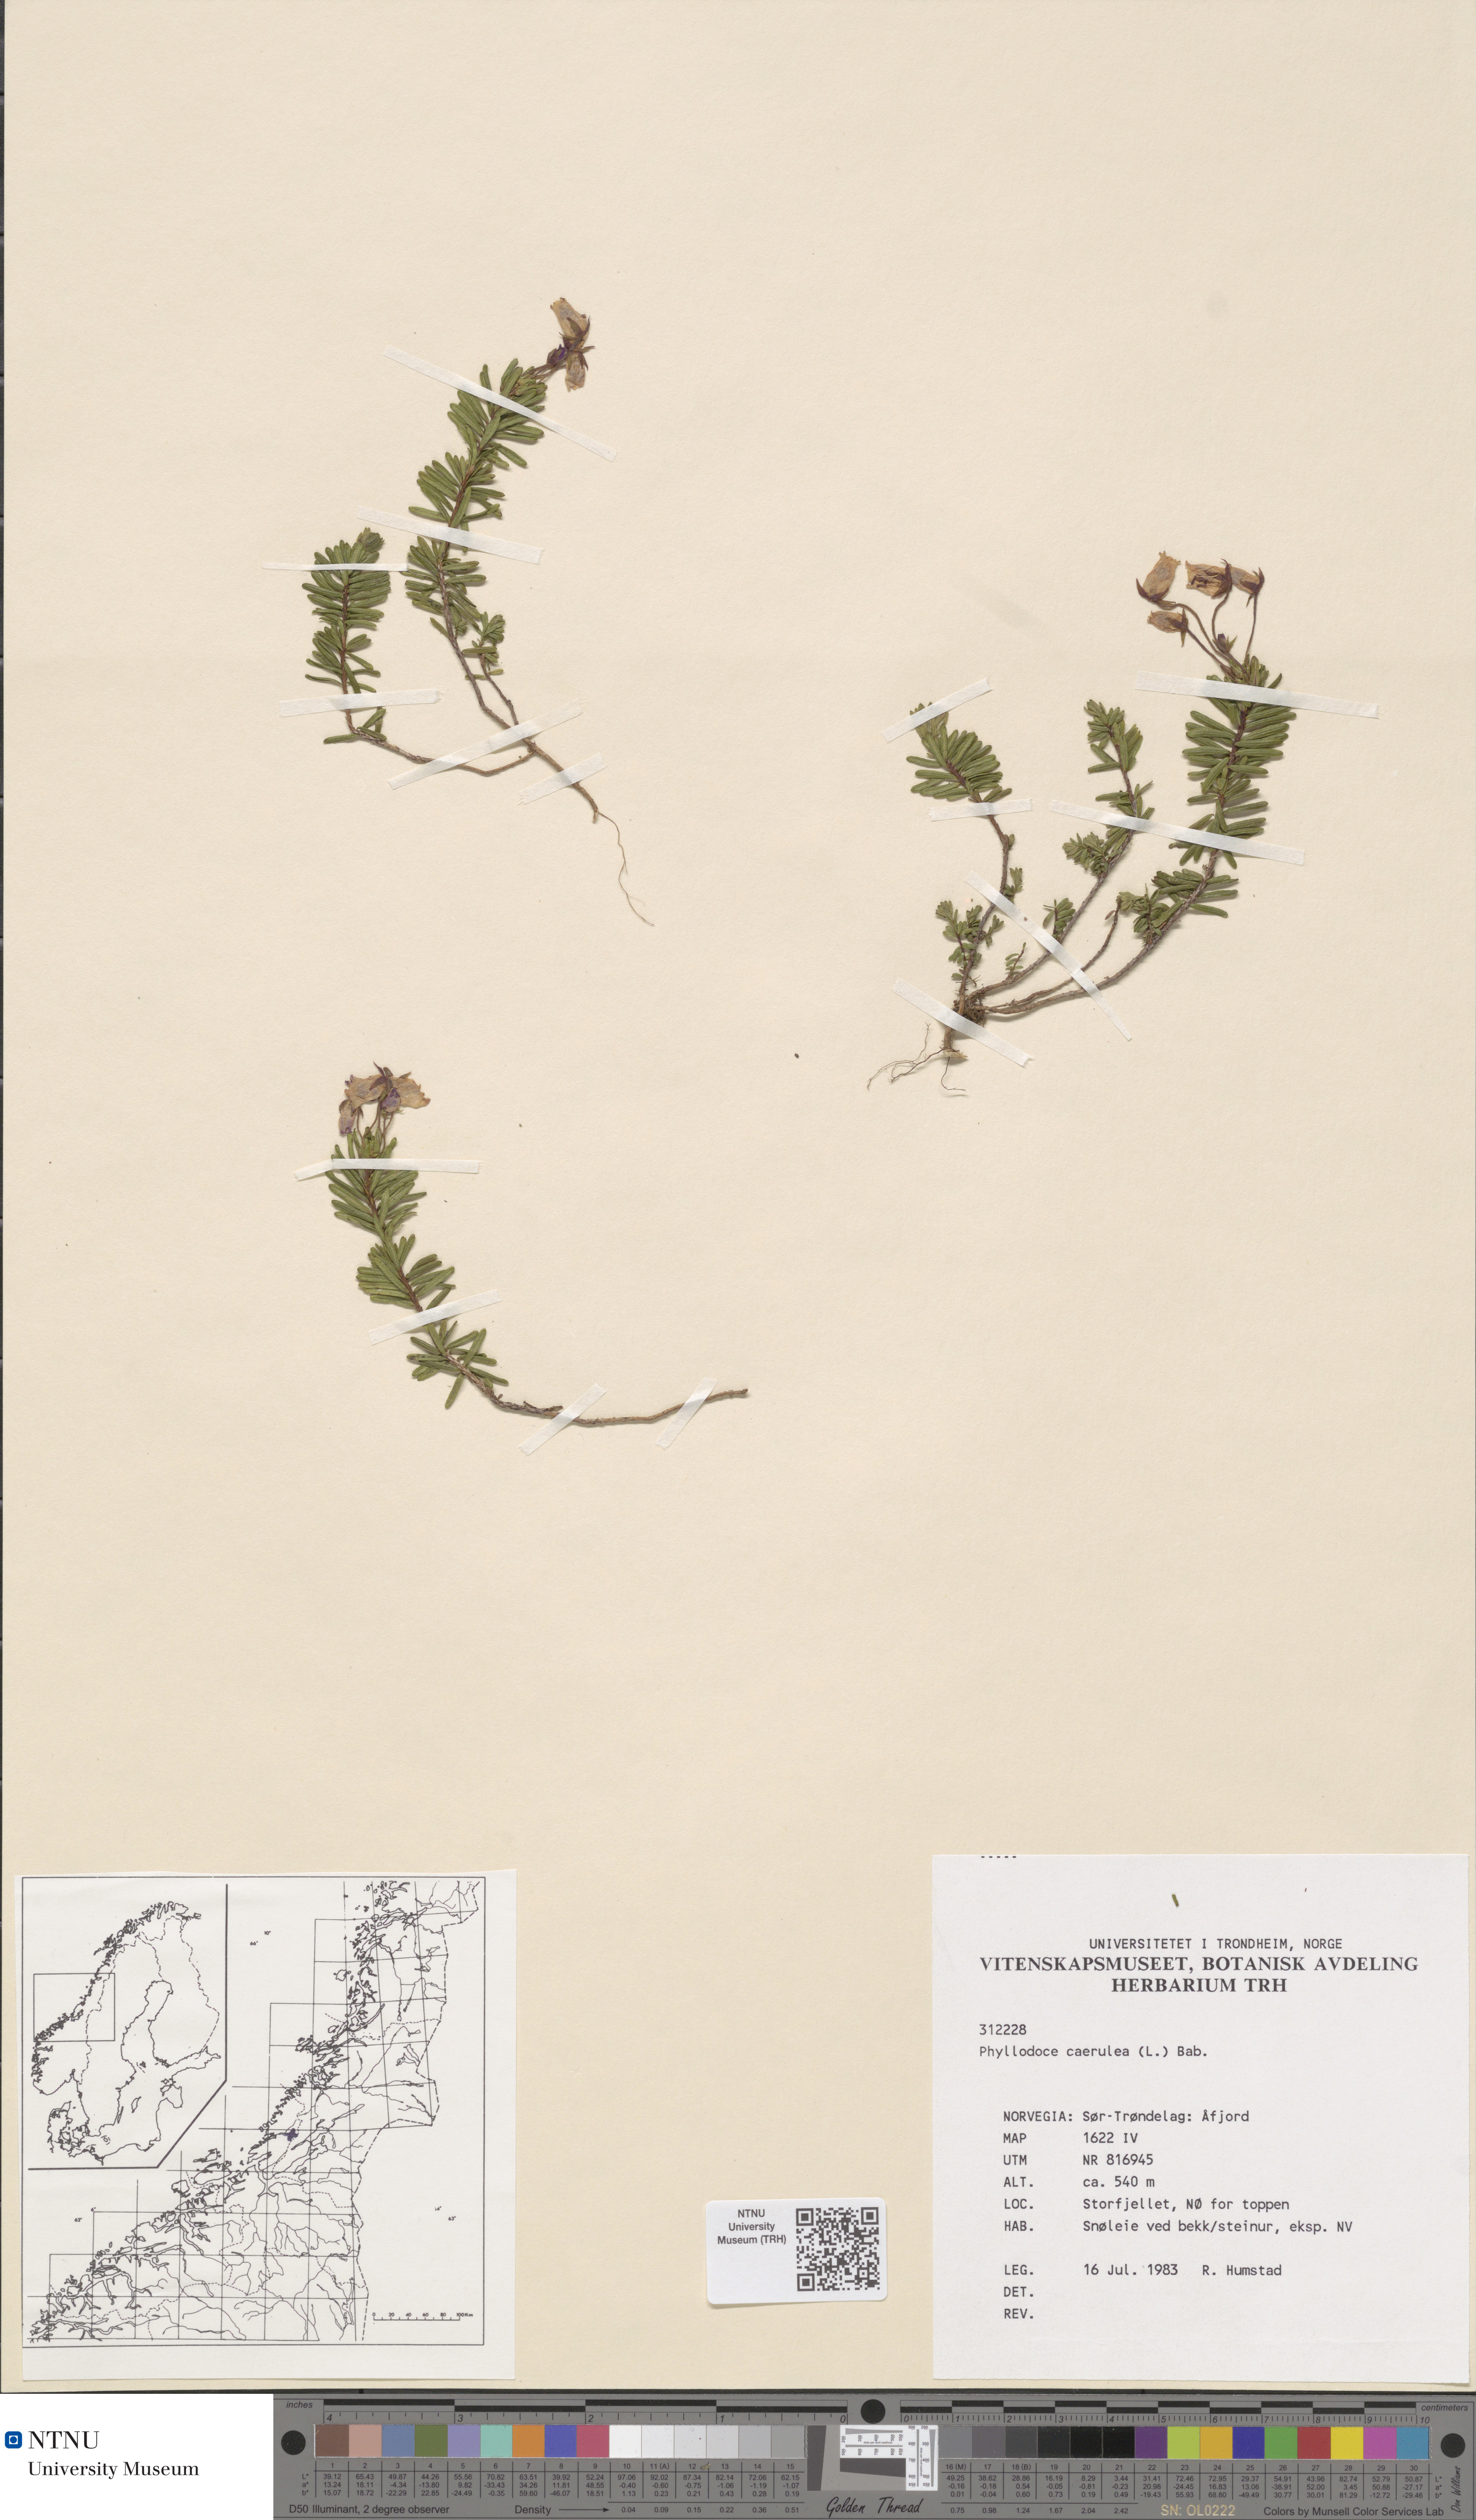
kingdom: Plantae
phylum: Tracheophyta
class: Magnoliopsida
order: Ericales
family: Ericaceae
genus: Phyllodoce
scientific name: Phyllodoce caerulea
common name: Blue heath
